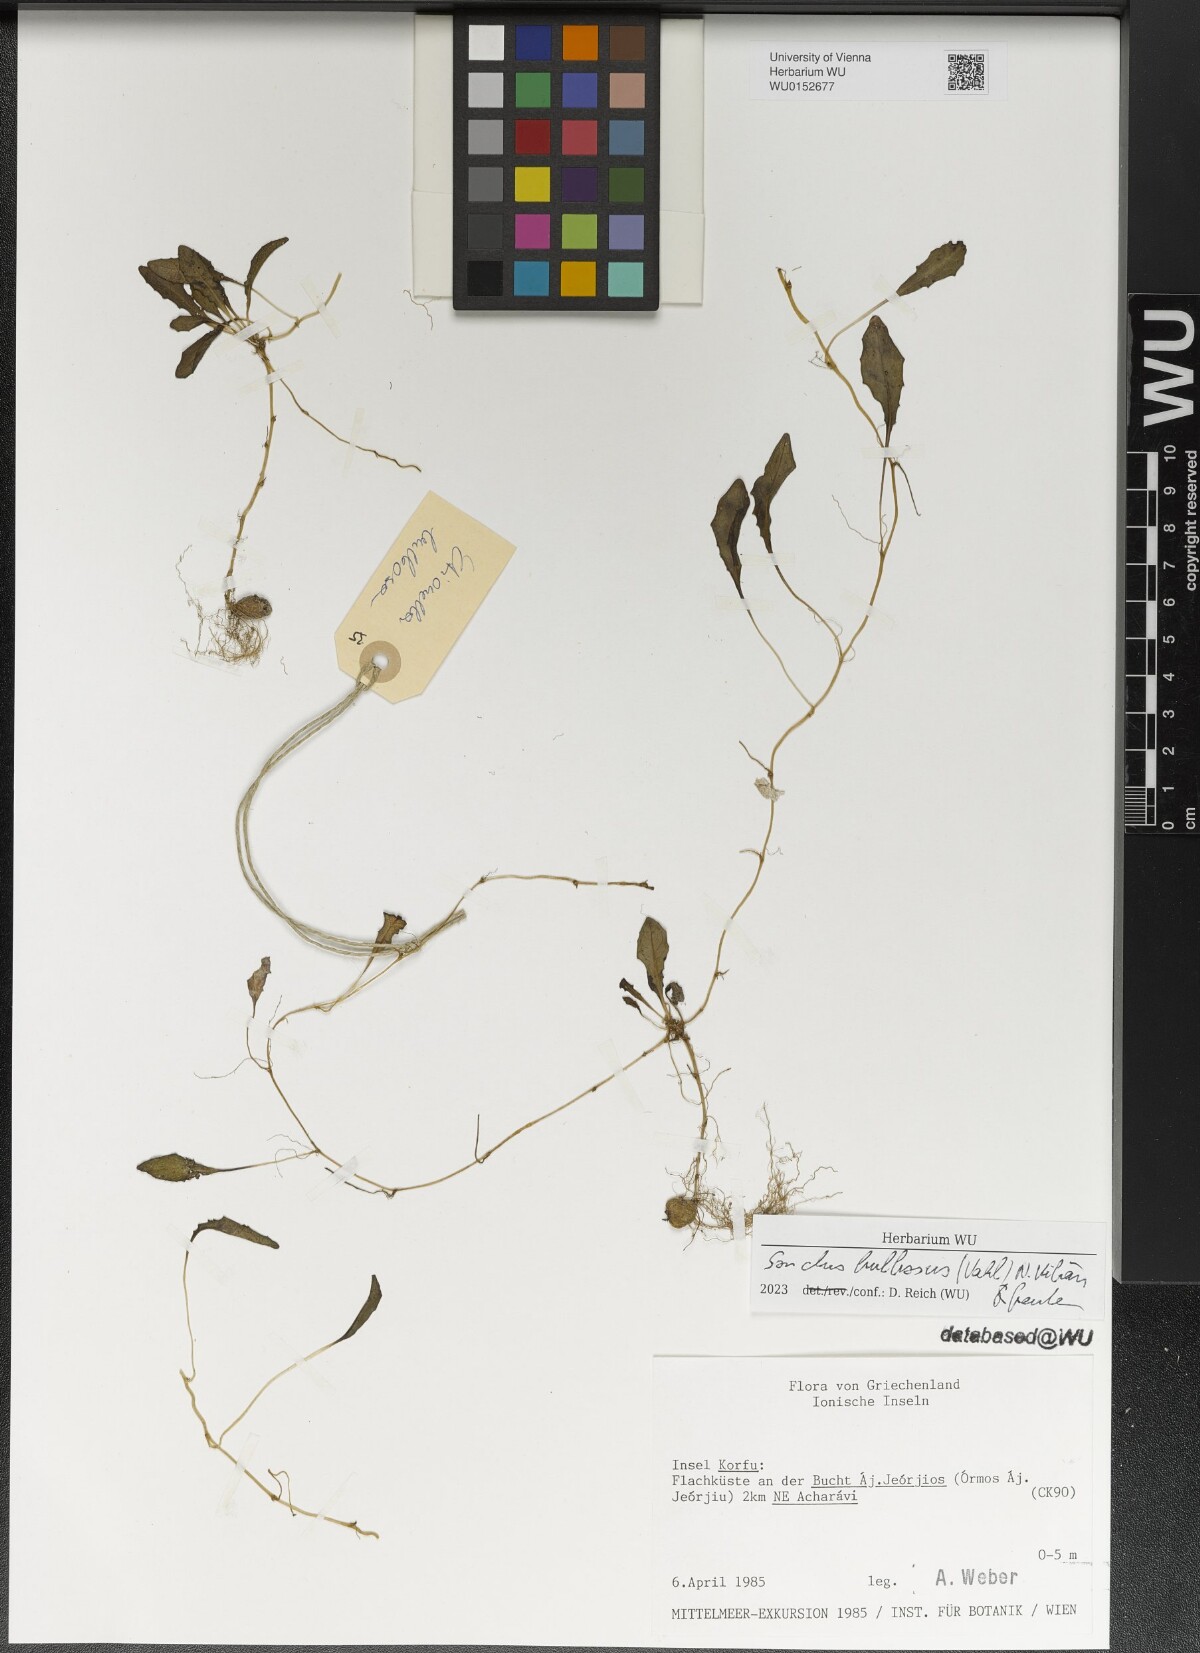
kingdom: Plantae
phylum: Tracheophyta
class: Magnoliopsida
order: Asterales
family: Asteraceae
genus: Aetheorhiza
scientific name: Aetheorhiza bulbosa
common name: Tuberous hawk's-beard
